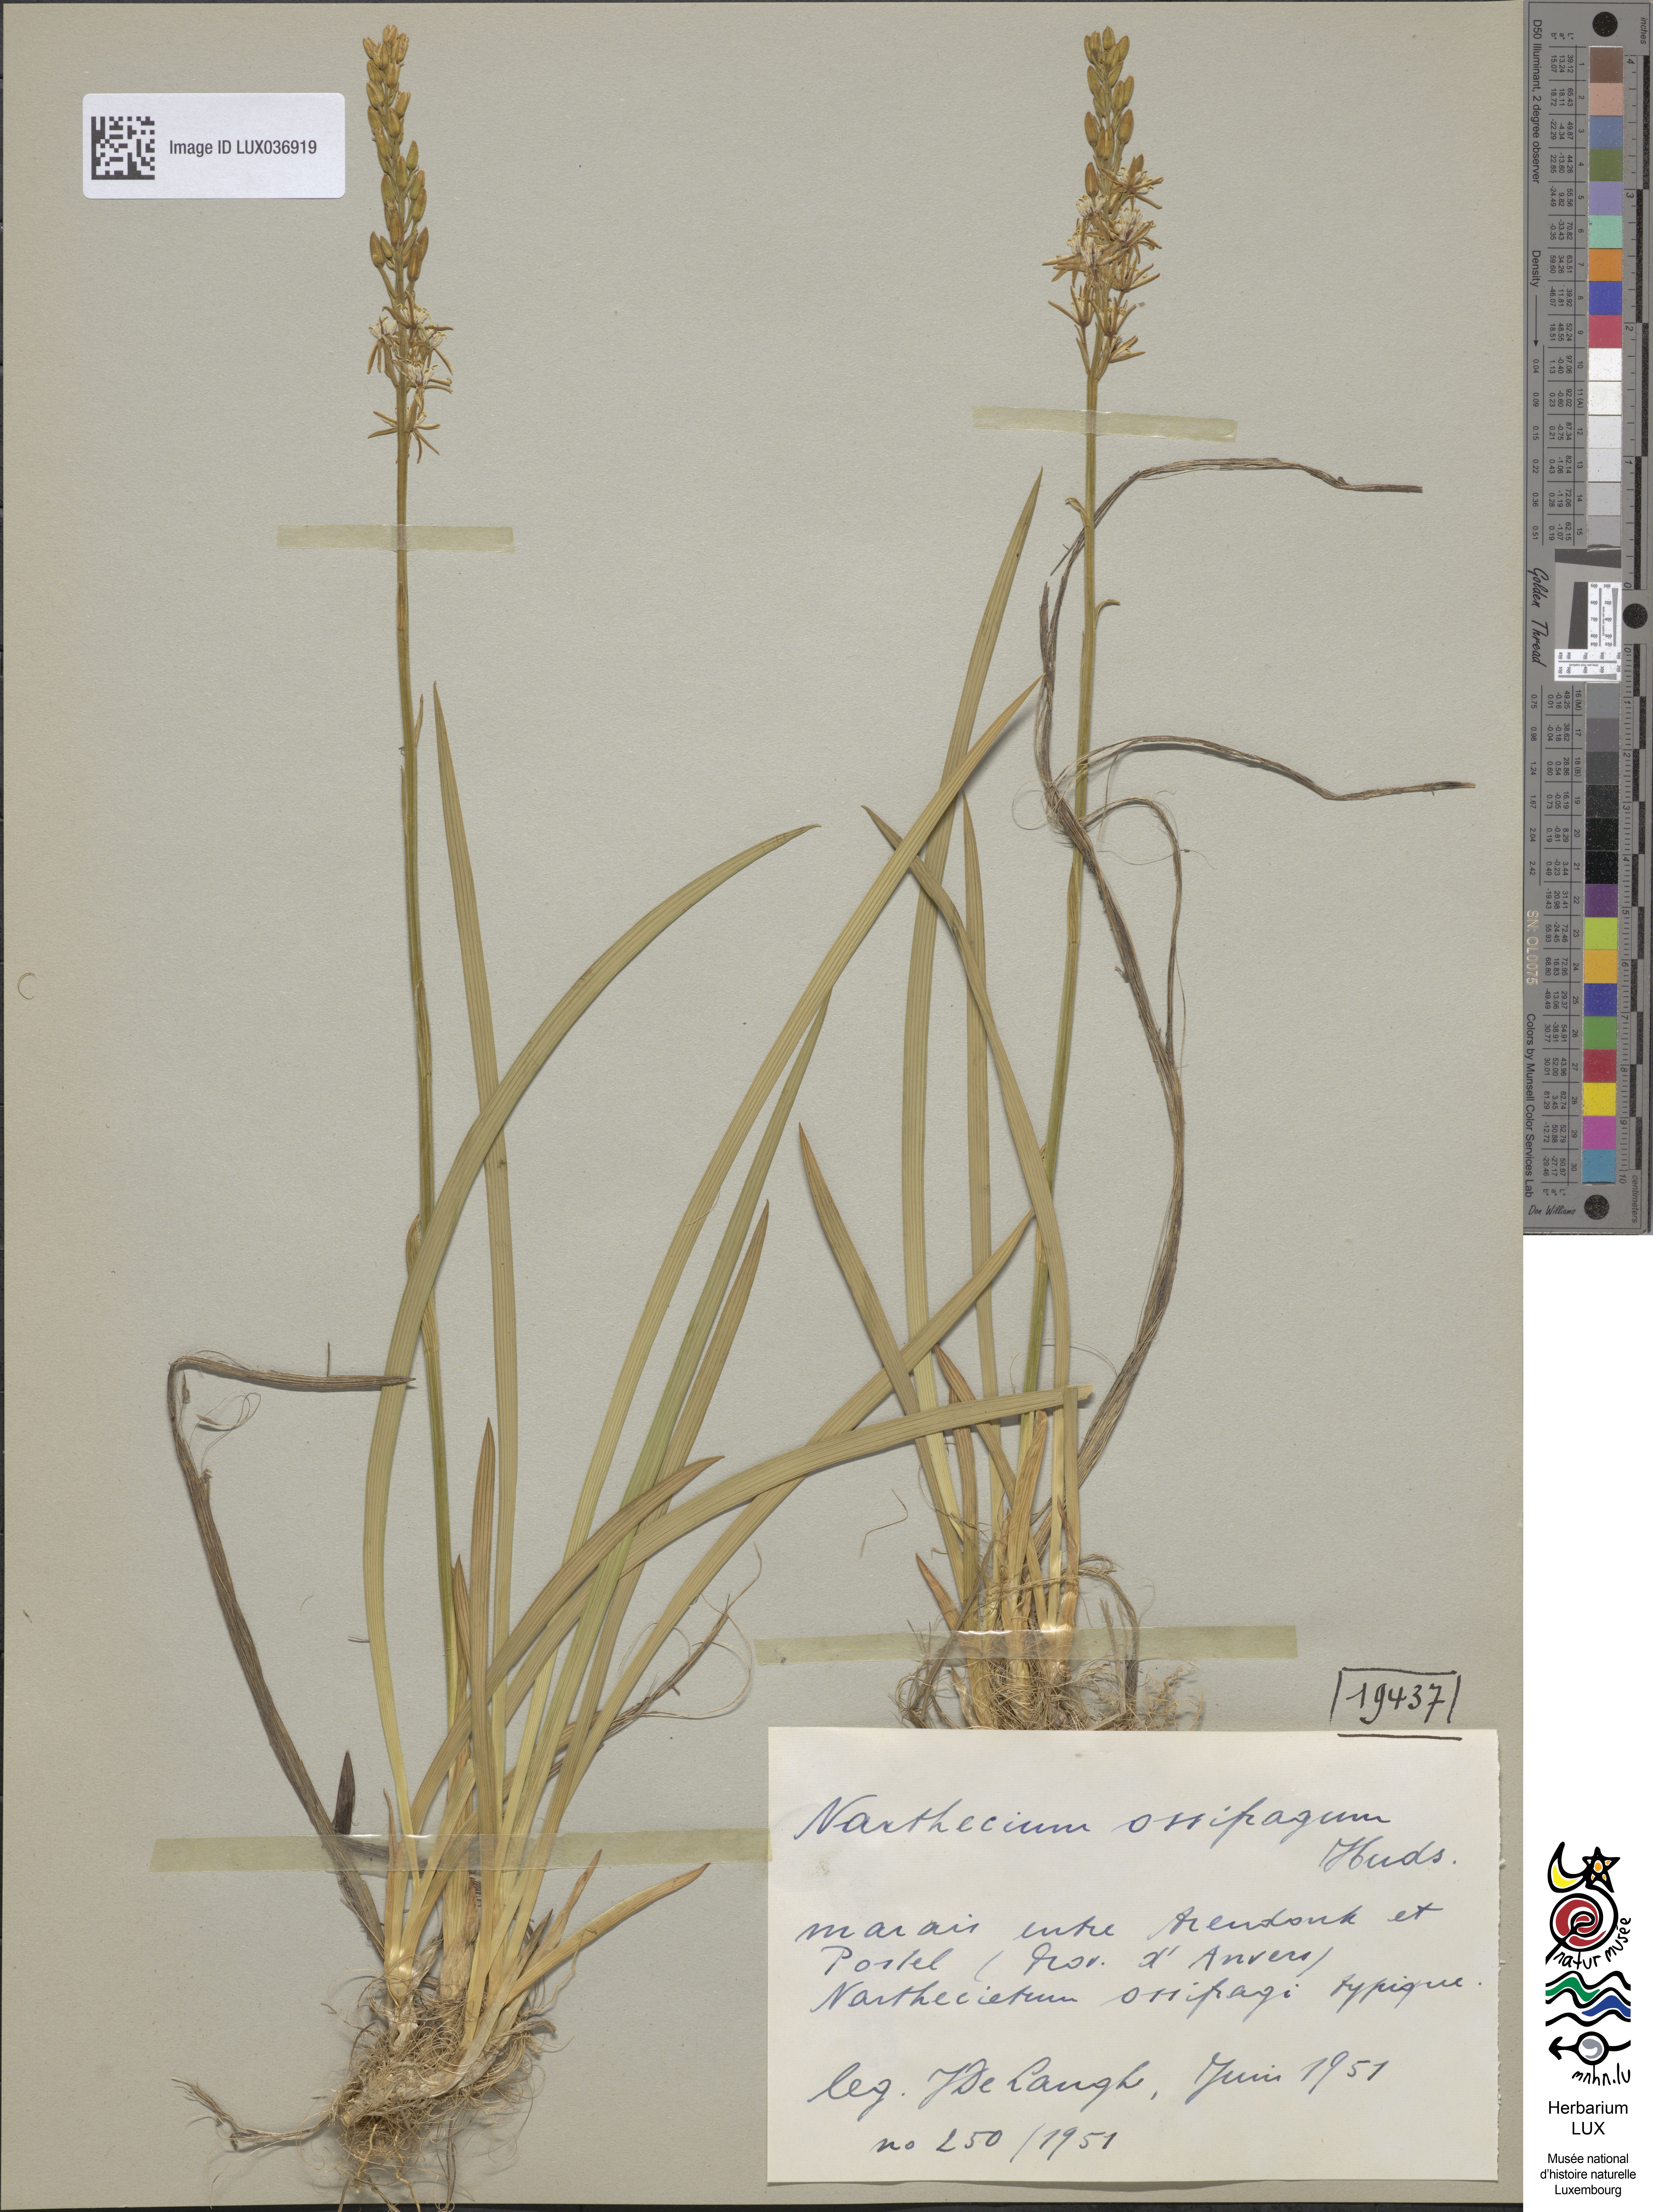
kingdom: Plantae
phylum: Tracheophyta
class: Liliopsida
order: Dioscoreales
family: Nartheciaceae
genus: Narthecium
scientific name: Narthecium ossifragum
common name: Bog asphodel
